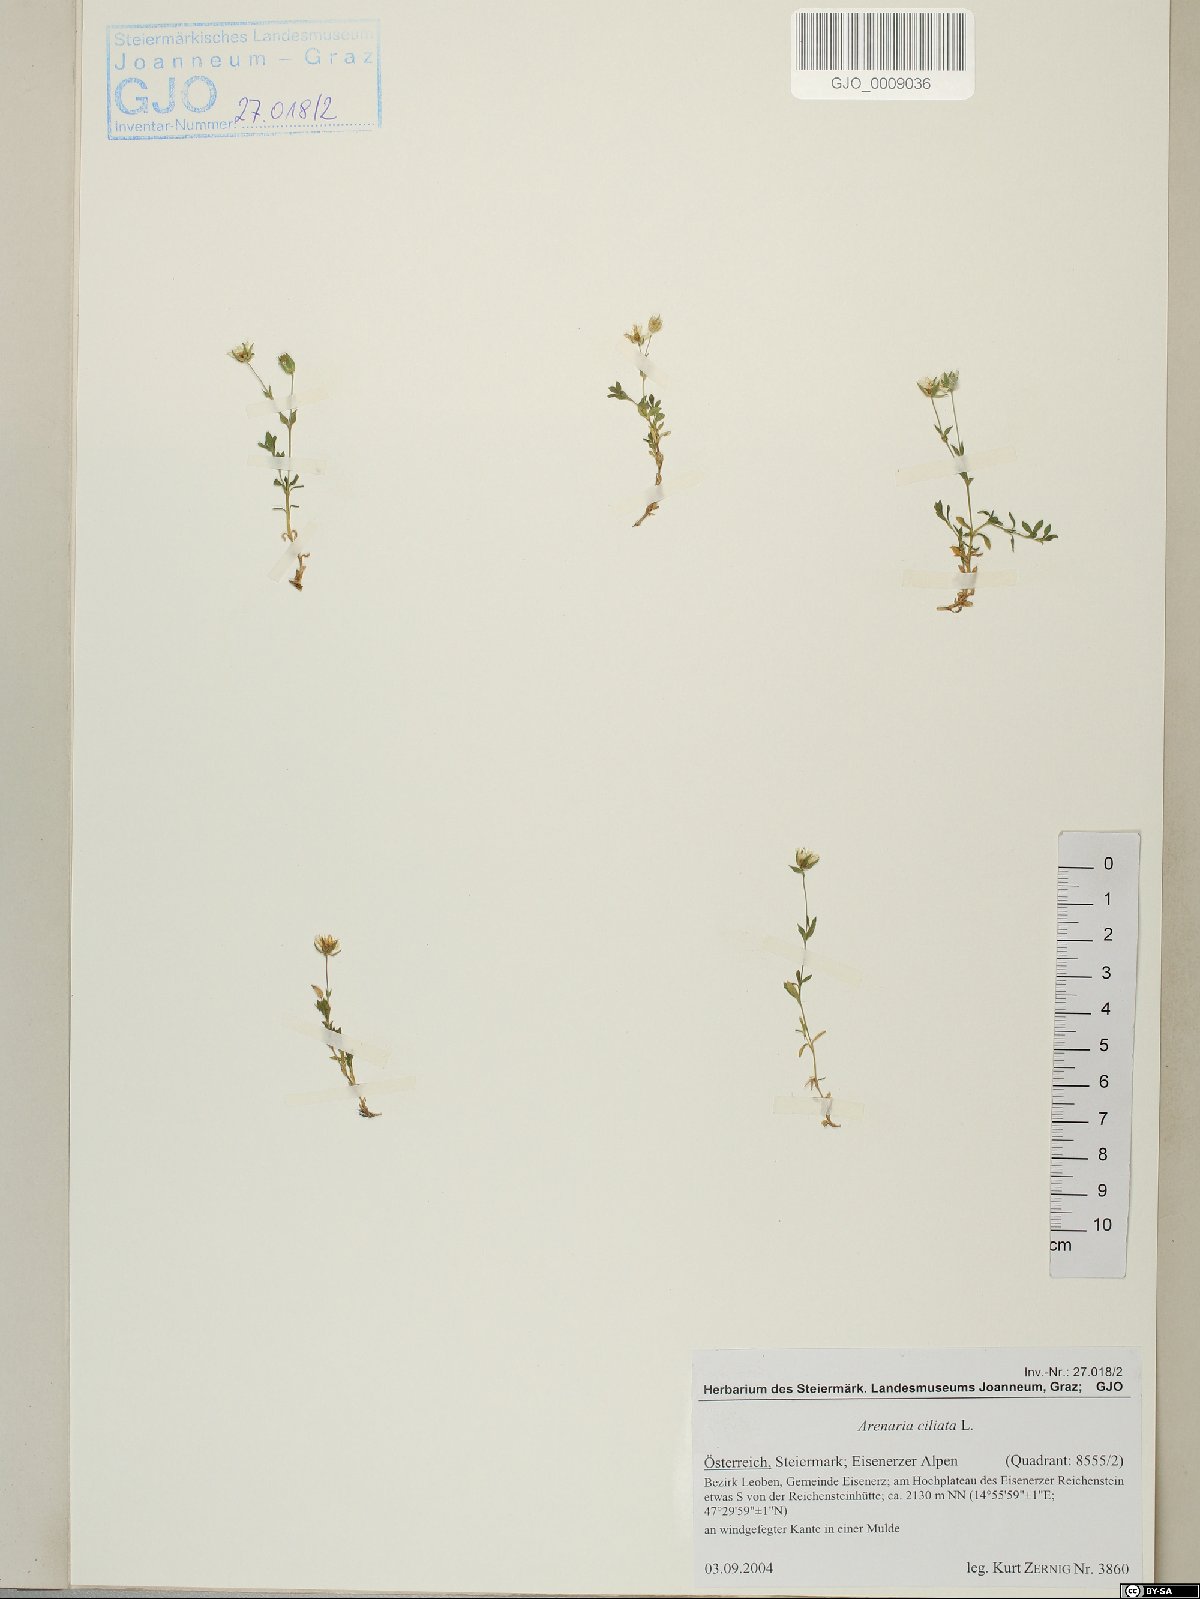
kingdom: Plantae
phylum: Tracheophyta
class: Magnoliopsida
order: Caryophyllales
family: Caryophyllaceae
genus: Arenaria
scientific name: Arenaria ciliata
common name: Fringed sandwort
